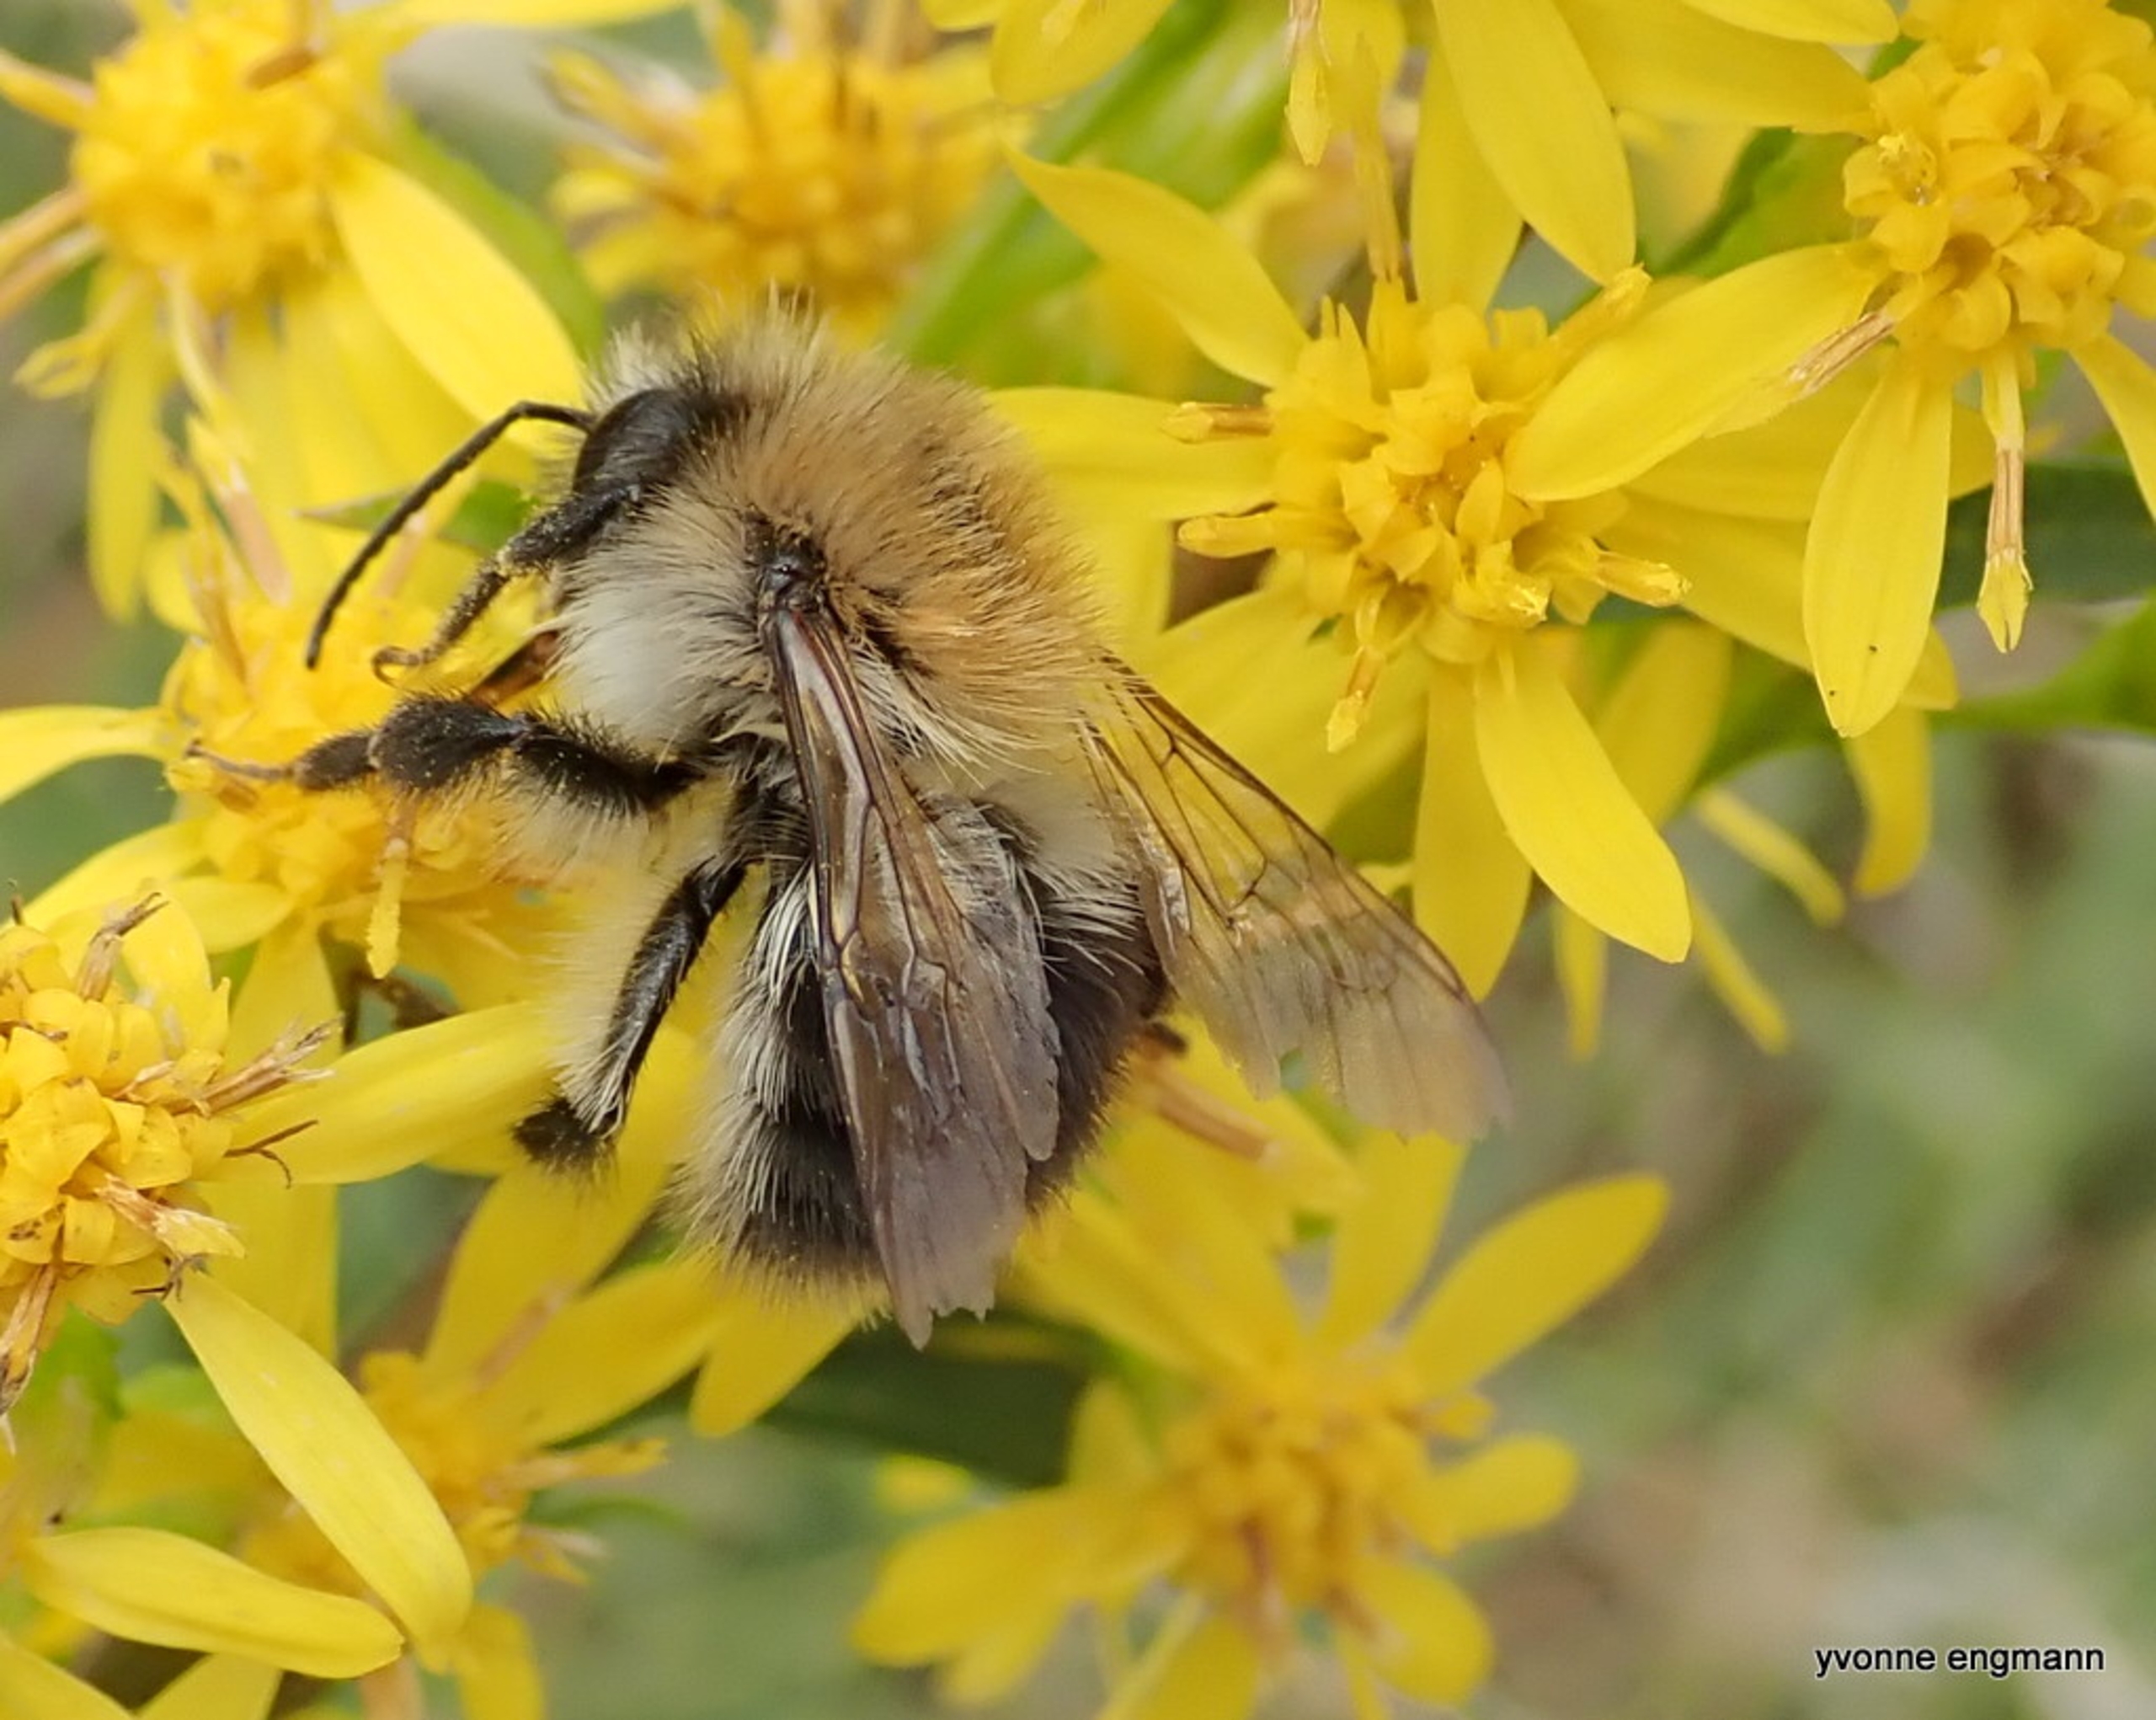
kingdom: Animalia
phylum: Arthropoda
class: Insecta
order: Hymenoptera
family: Apidae
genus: Bombus
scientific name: Bombus pascuorum
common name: Agerhumle
